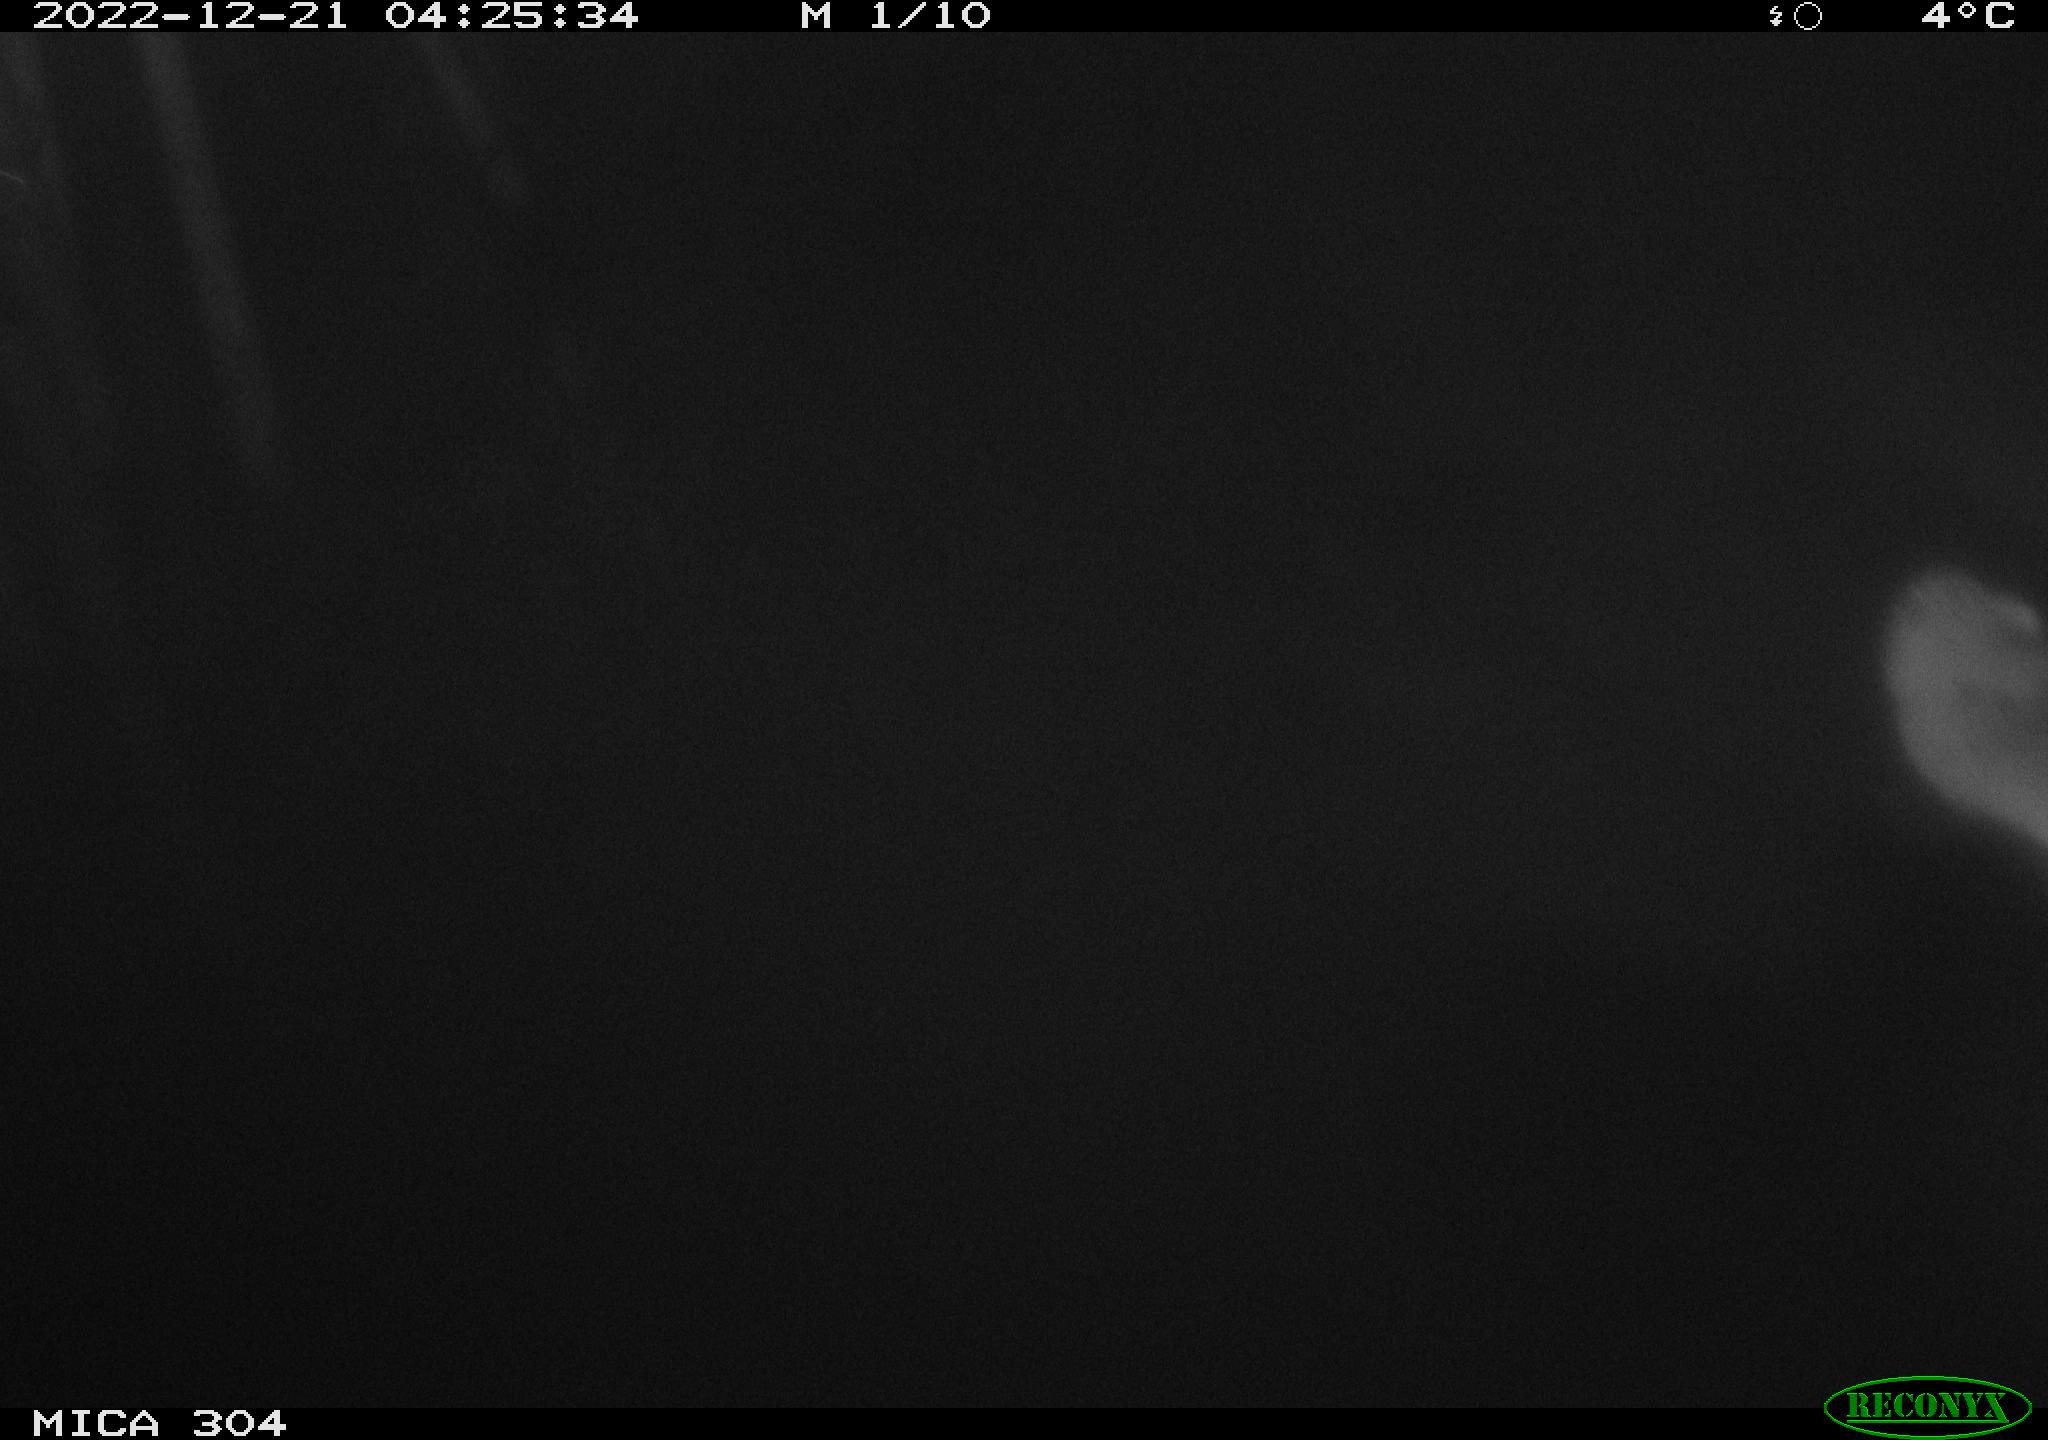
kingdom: Animalia
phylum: Chordata
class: Mammalia
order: Rodentia
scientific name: Rodentia
